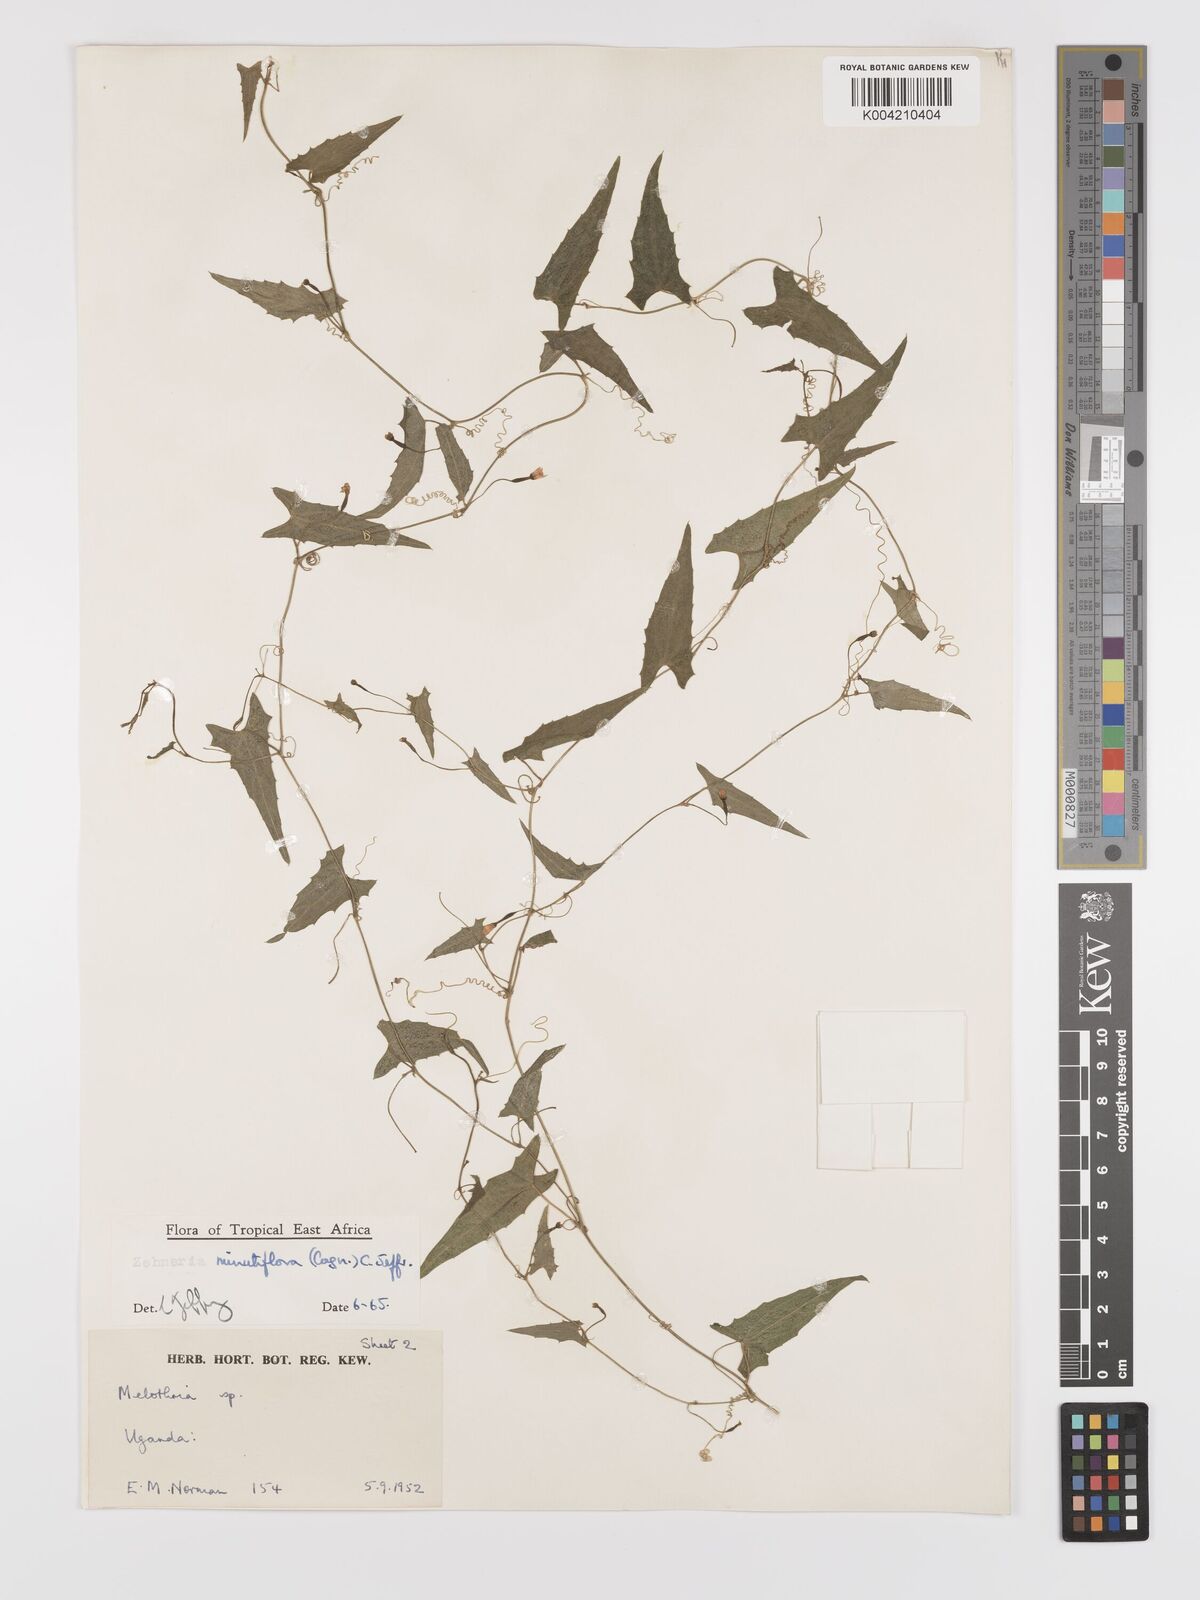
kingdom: Plantae
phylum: Tracheophyta
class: Magnoliopsida
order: Cucurbitales
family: Cucurbitaceae
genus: Zehneria
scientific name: Zehneria minutiflora
